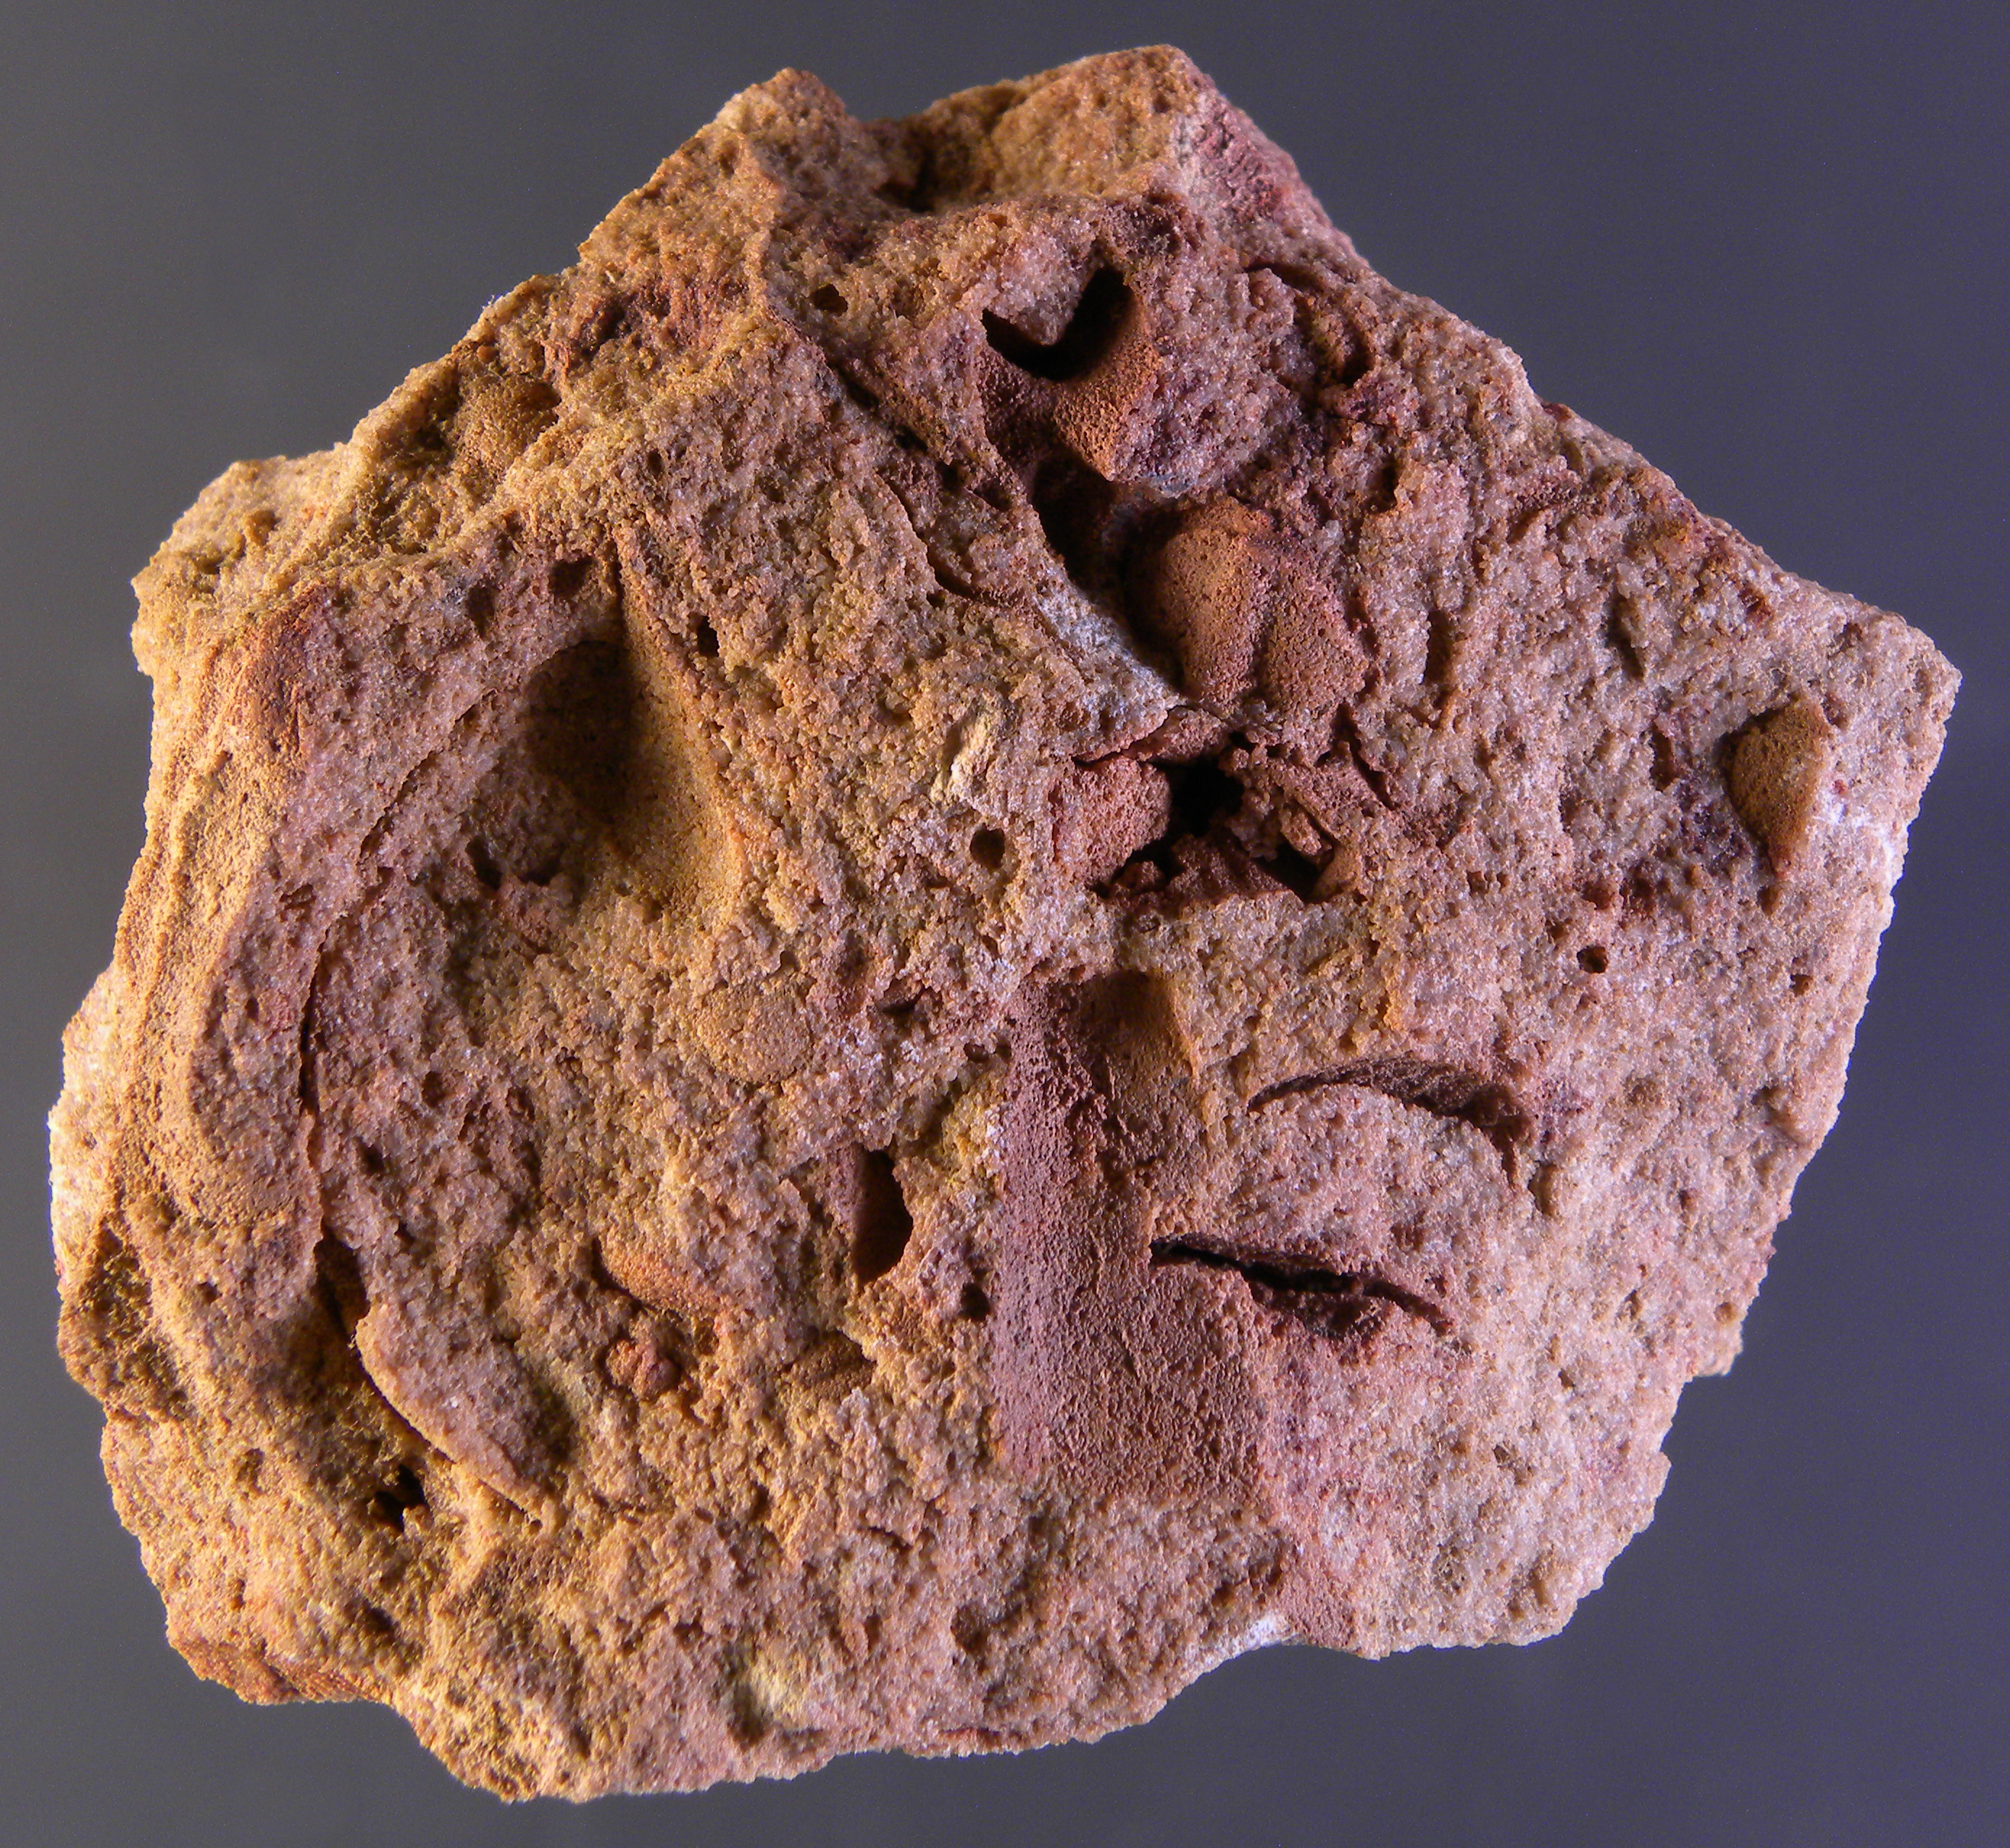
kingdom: Animalia
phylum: Arthropoda
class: Trilobita
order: Phacopida
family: Acastidae
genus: Acastava
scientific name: Acastava
